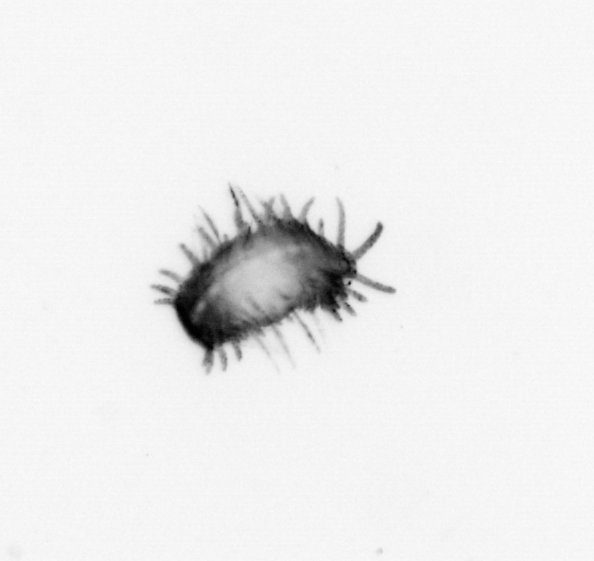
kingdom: Animalia
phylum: Annelida
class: Polychaeta
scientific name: Polychaeta
